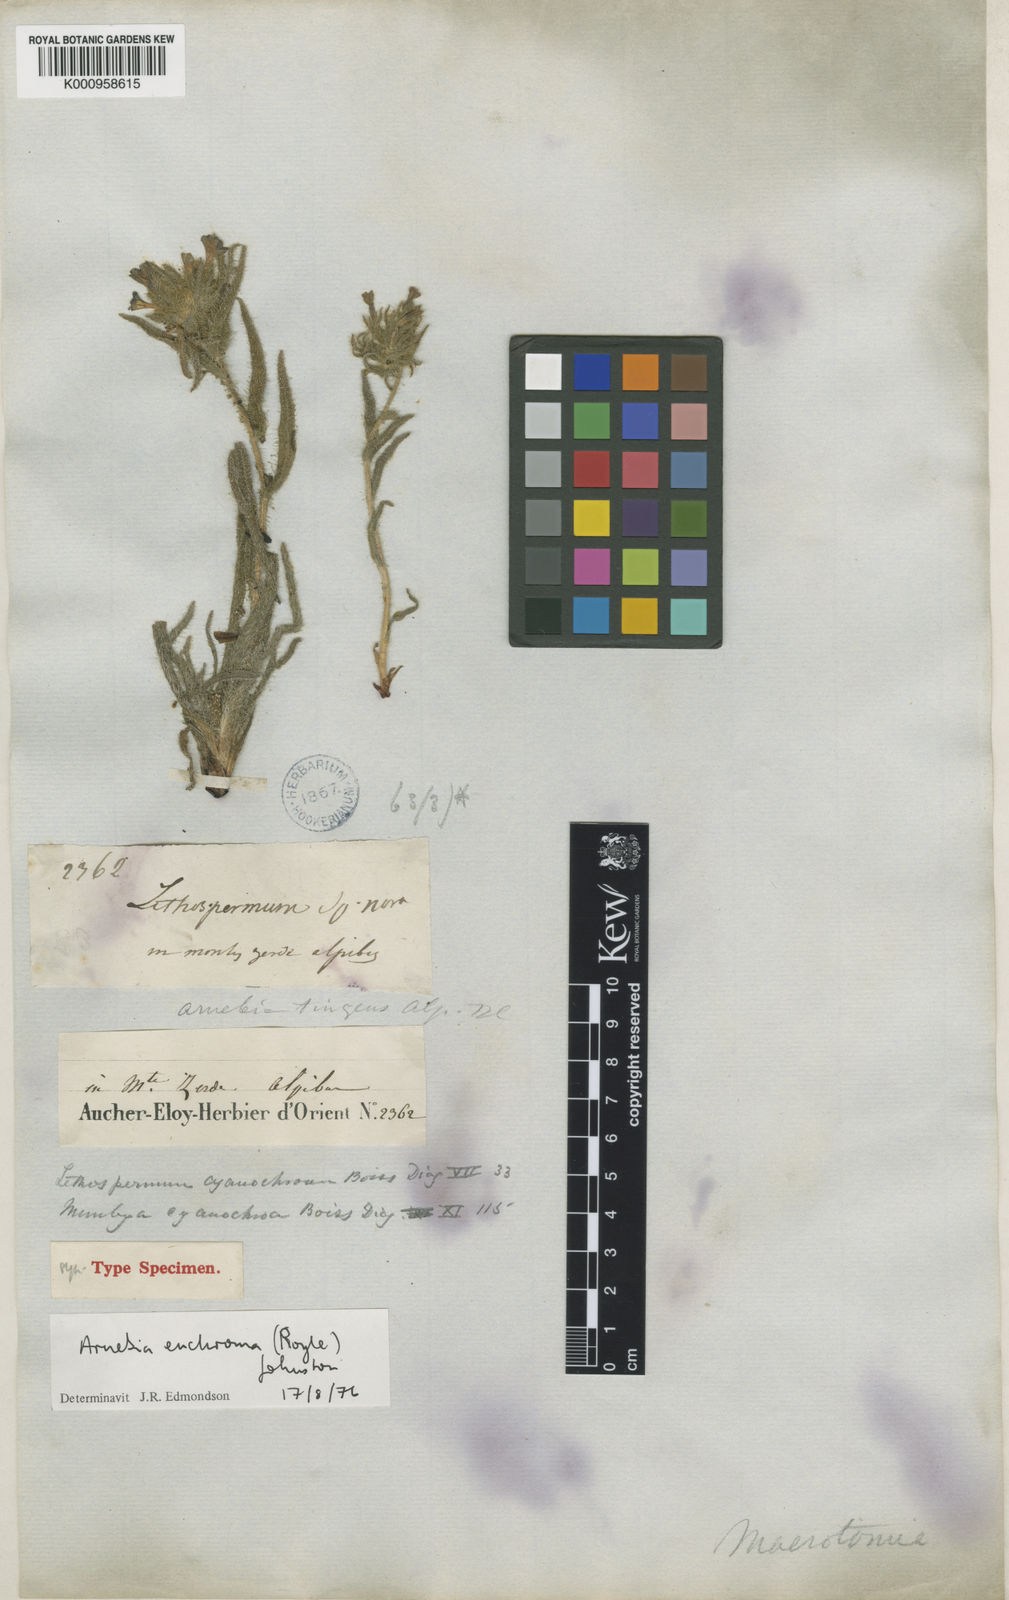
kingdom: Plantae
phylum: Tracheophyta
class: Magnoliopsida
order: Boraginales
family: Boraginaceae
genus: Arnebia
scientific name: Arnebia euchroma
